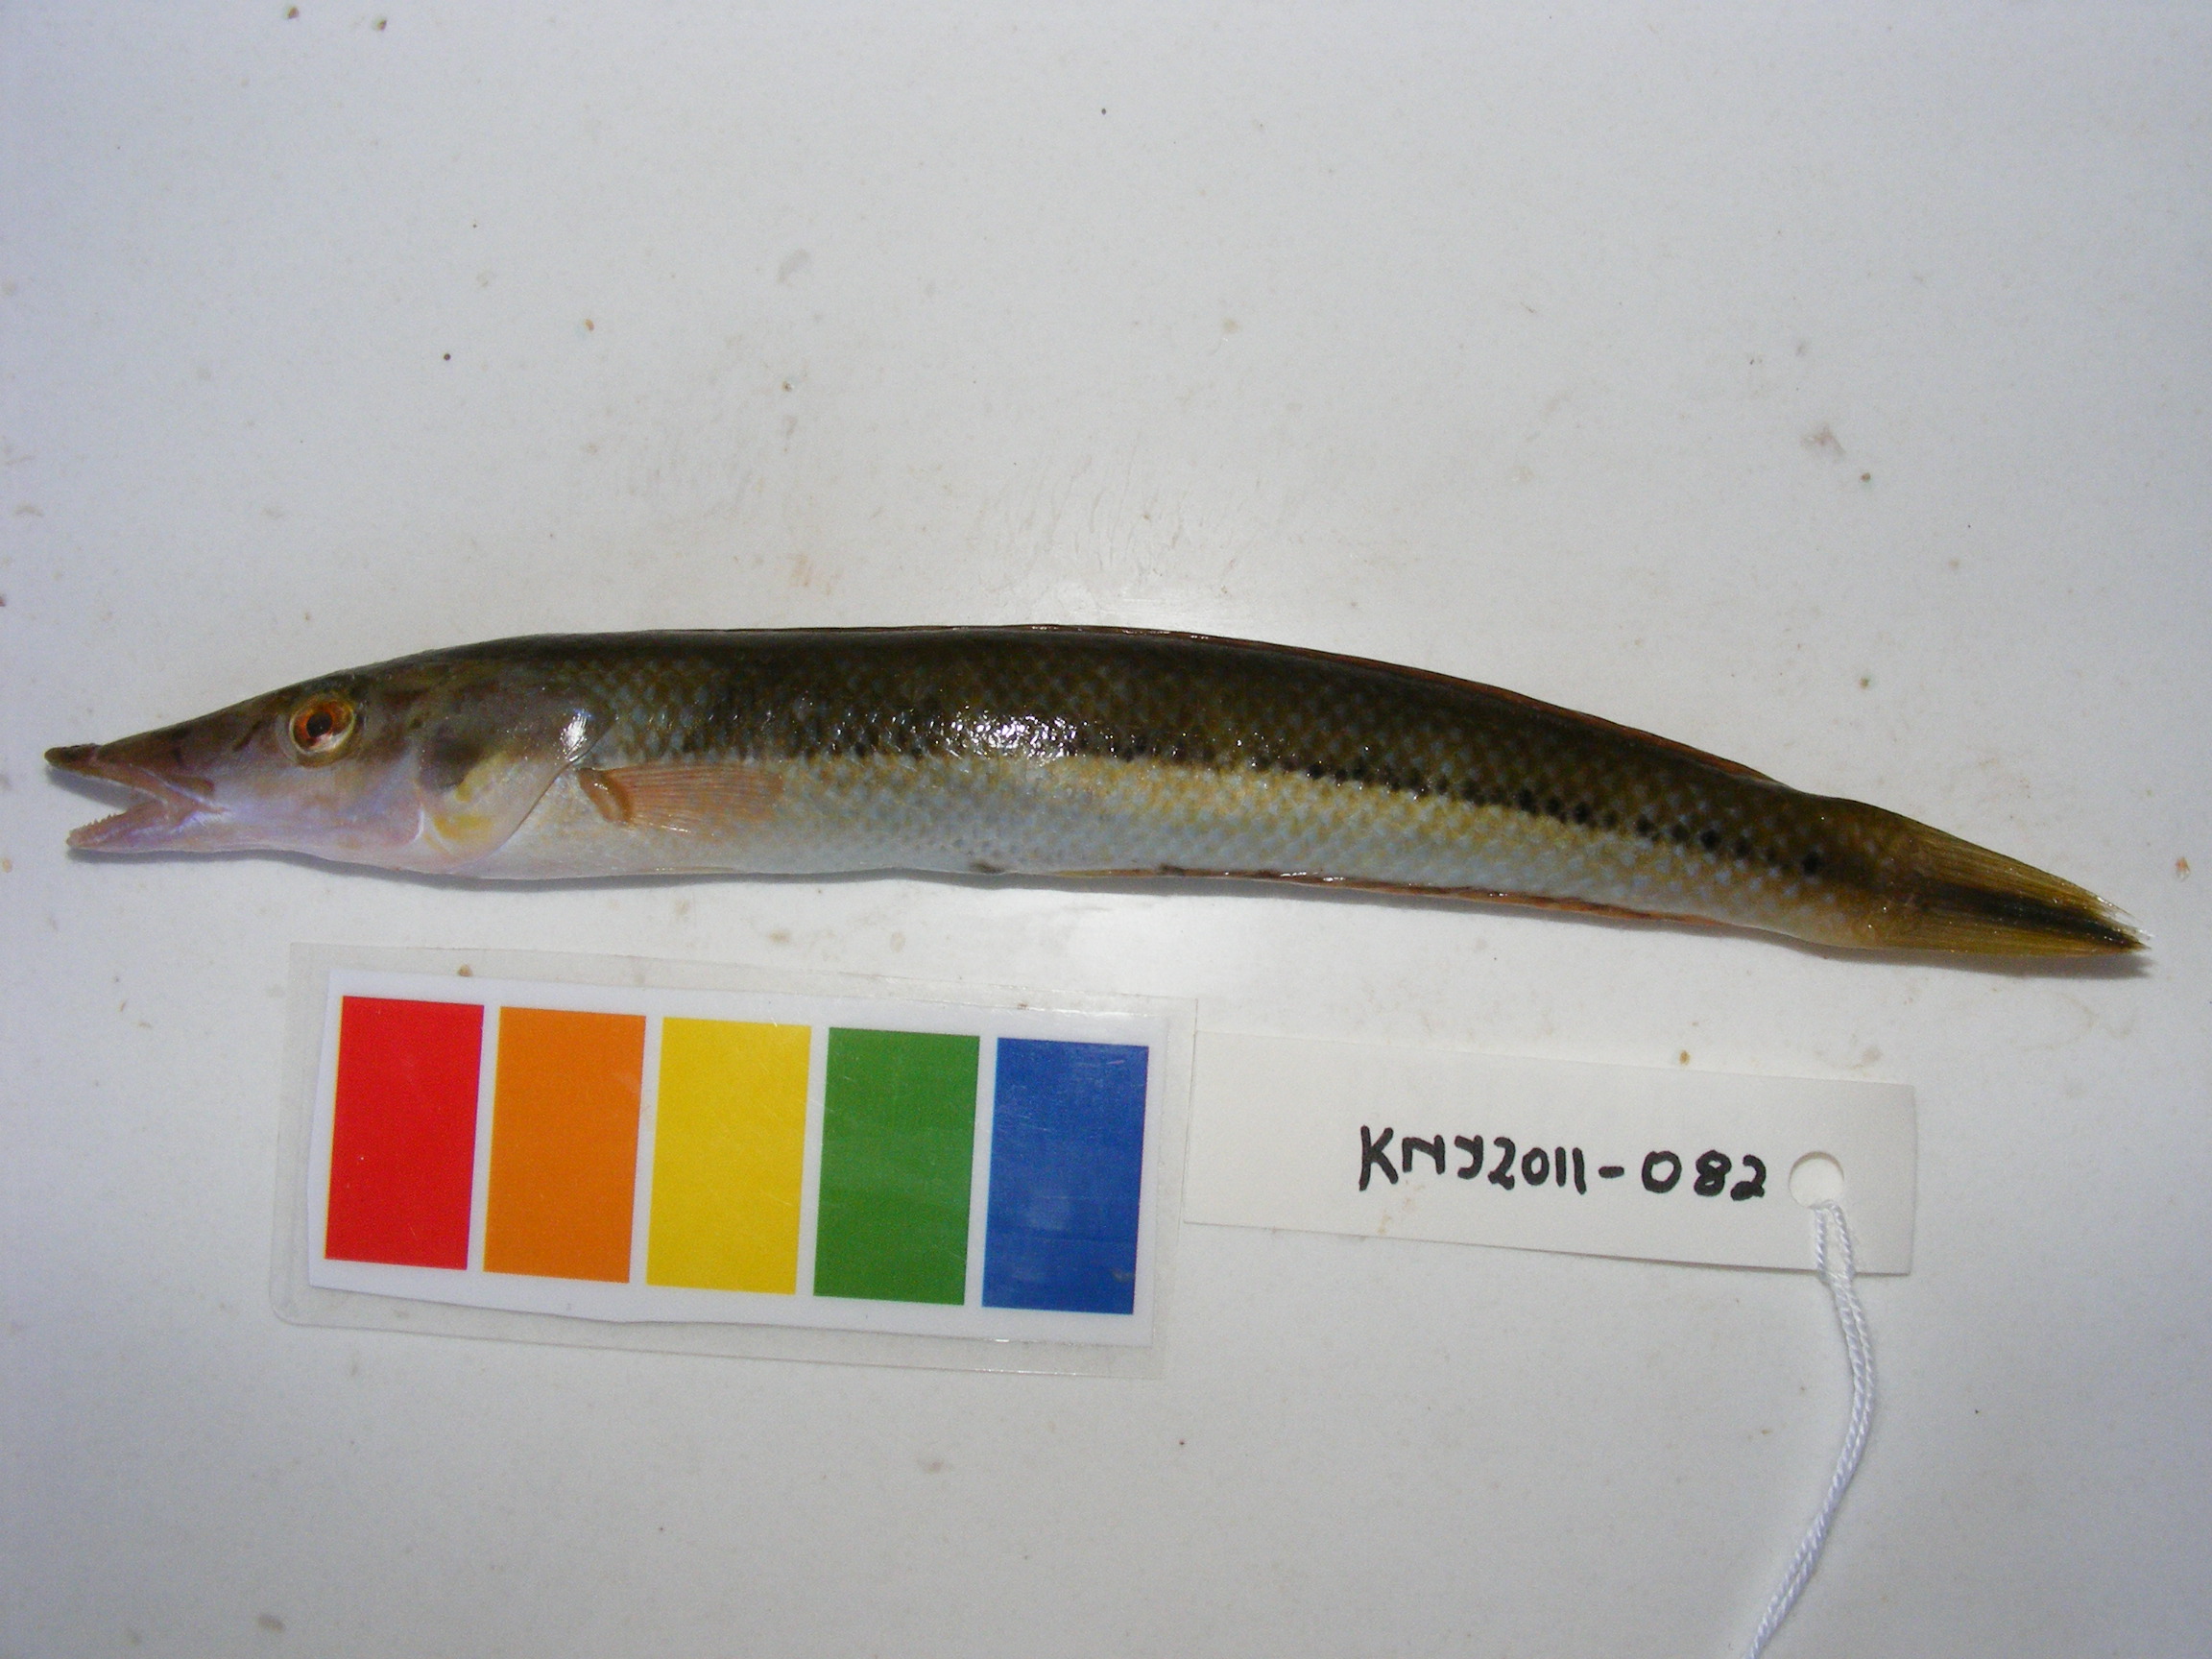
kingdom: Animalia
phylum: Chordata
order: Perciformes
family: Labridae
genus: Cheilio
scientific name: Cheilio inermis
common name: Cigar wrasse
